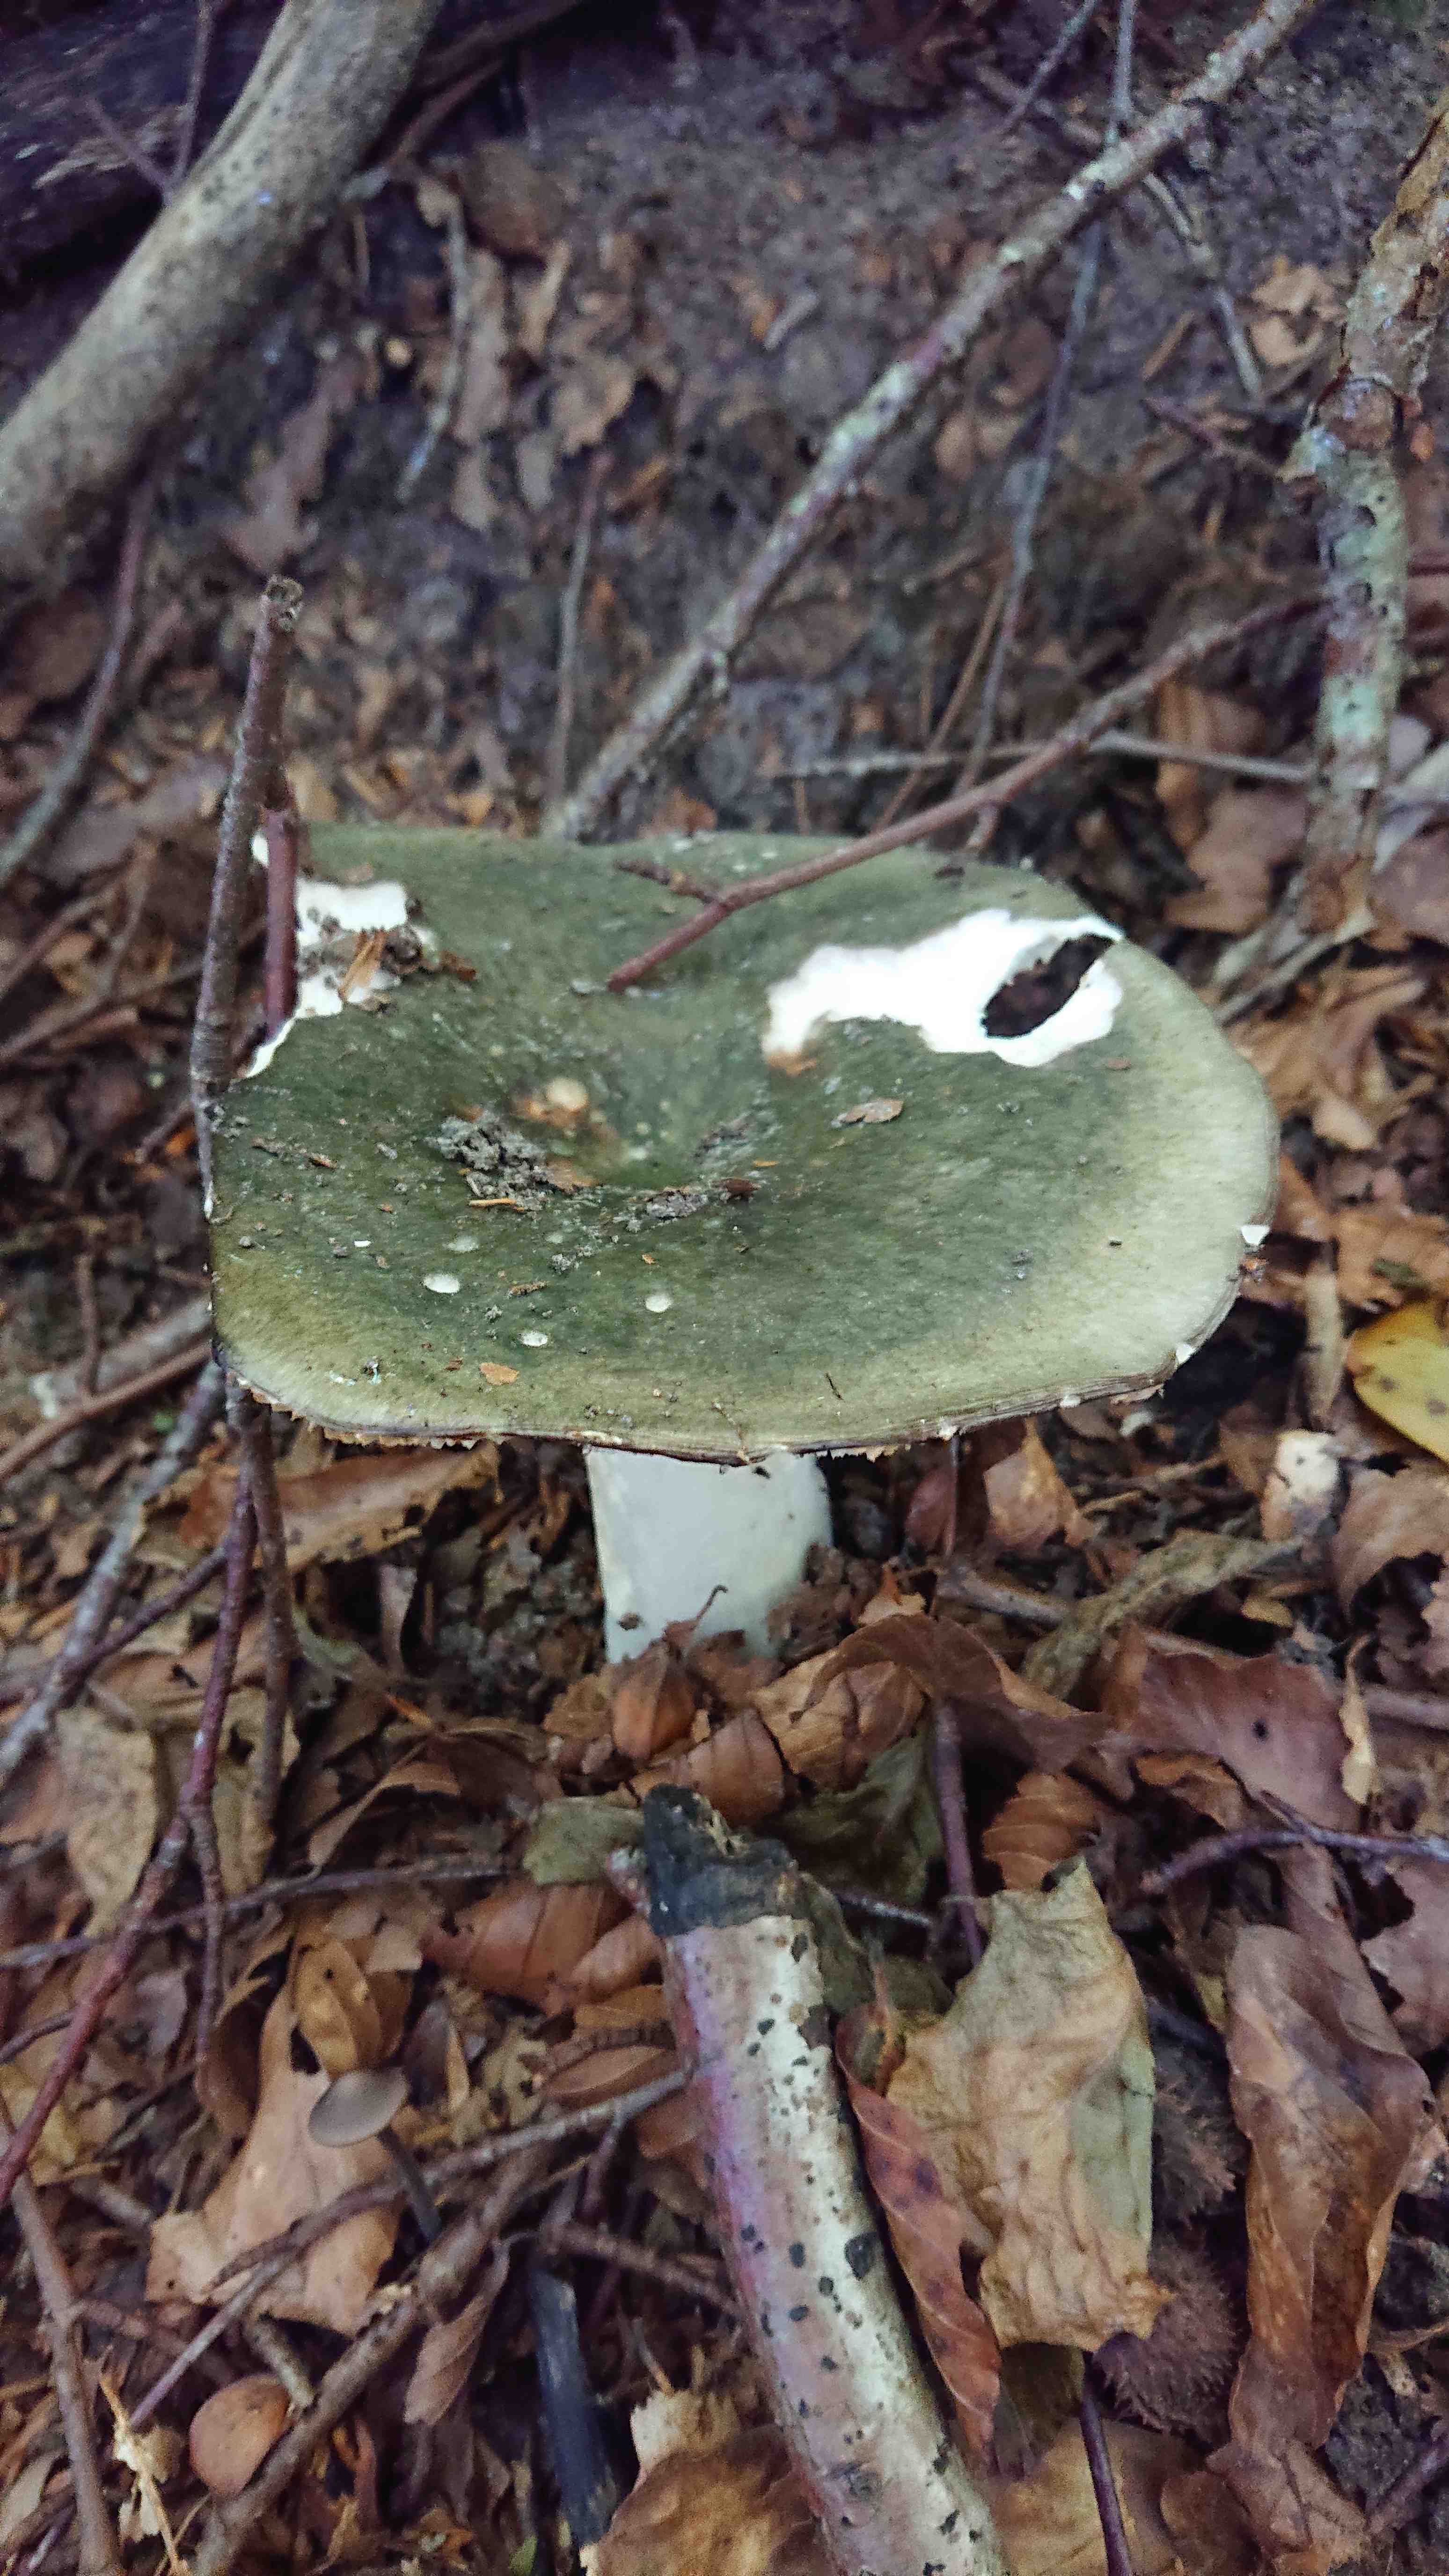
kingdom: Fungi
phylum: Basidiomycota
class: Agaricomycetes
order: Russulales
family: Russulaceae
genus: Russula
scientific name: Russula
